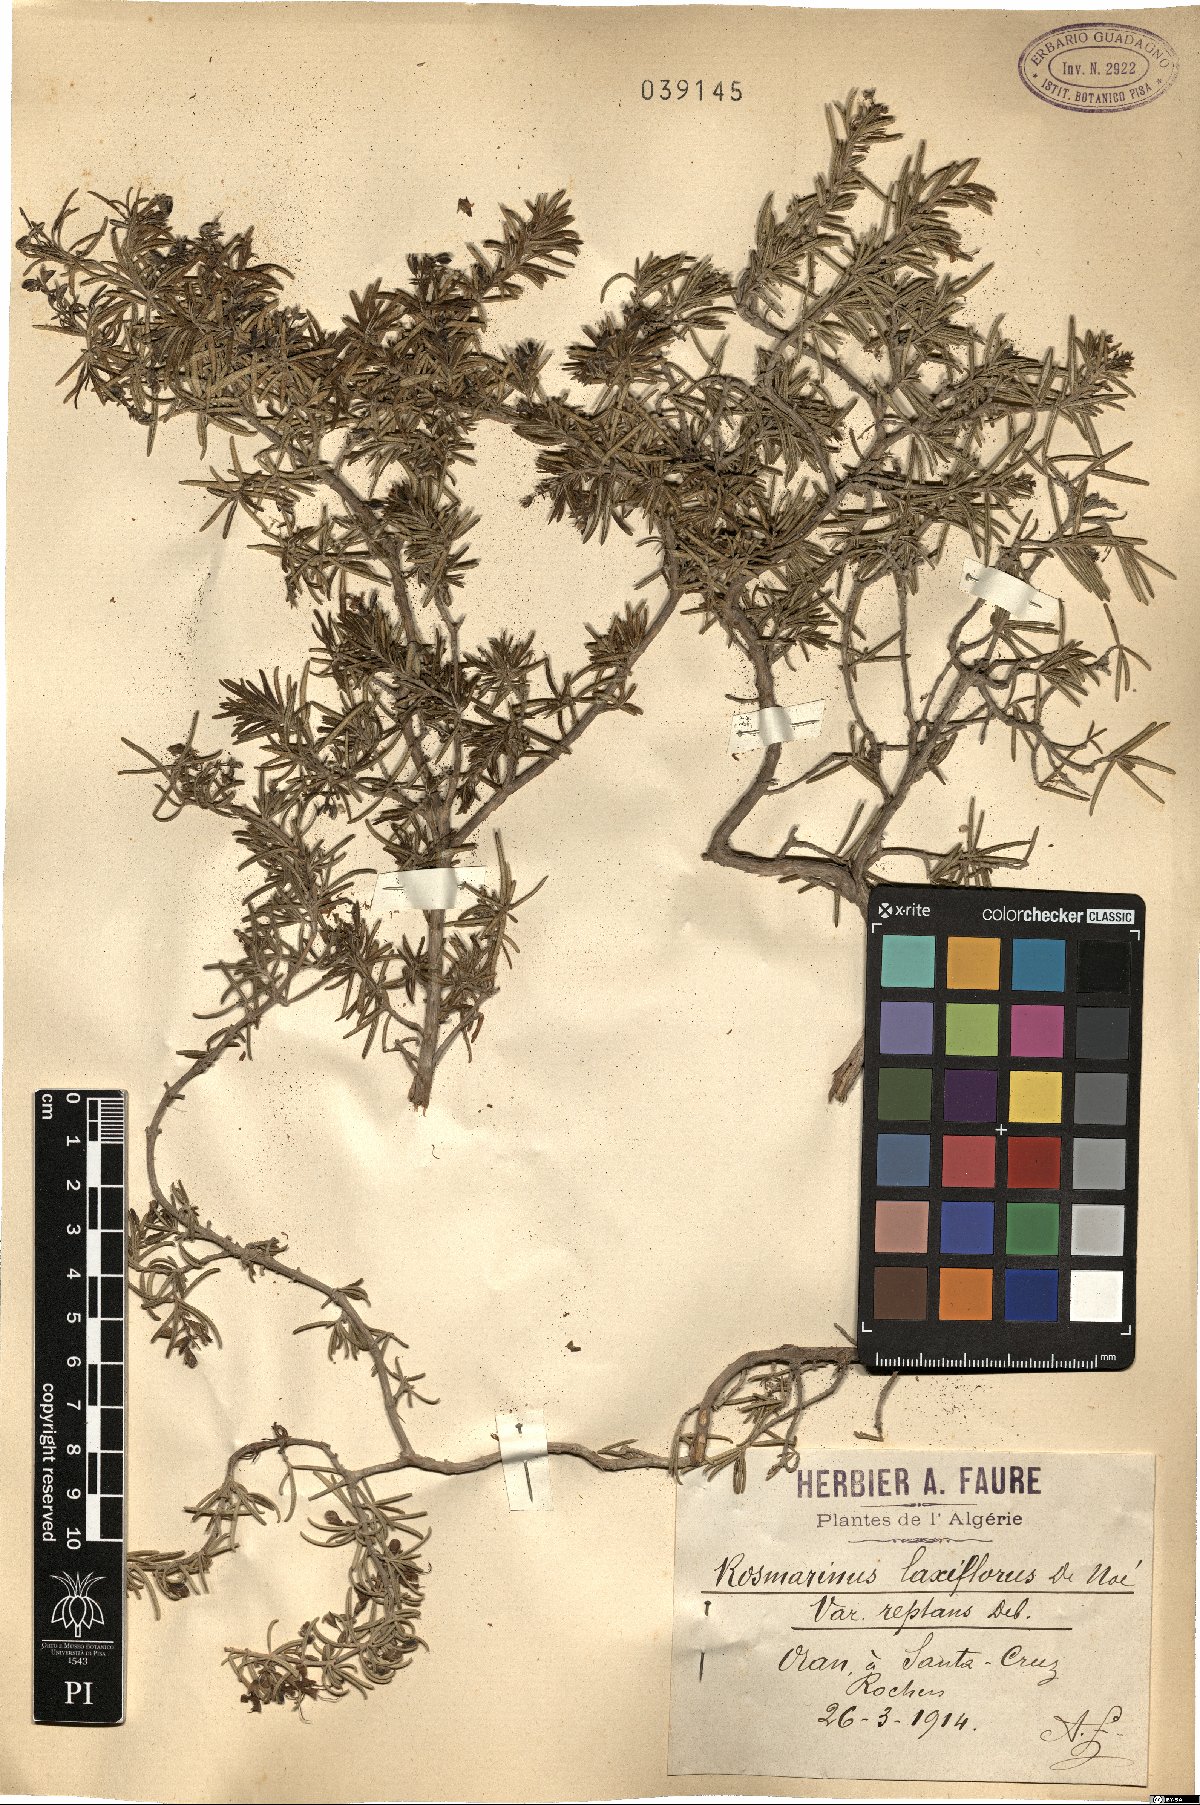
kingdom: Plantae
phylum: Tracheophyta
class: Magnoliopsida
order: Lamiales
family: Lamiaceae
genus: Salvia
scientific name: Salvia rosmarinus
